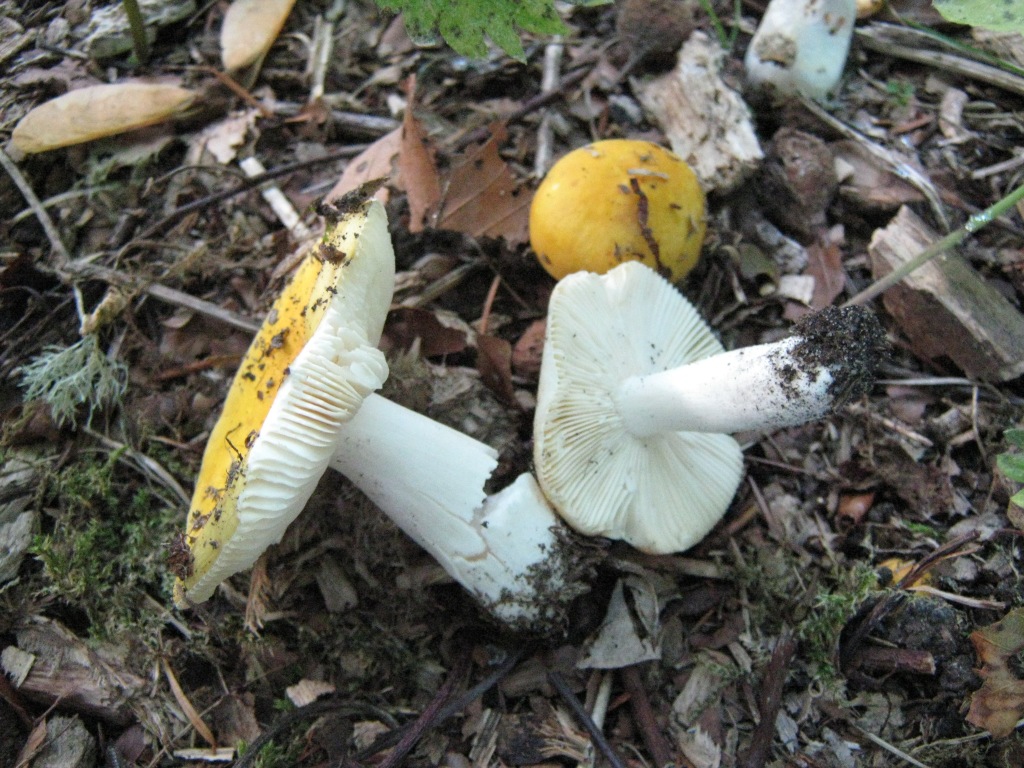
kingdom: Fungi
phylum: Basidiomycota
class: Agaricomycetes
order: Russulales
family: Russulaceae
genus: Russula
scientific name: Russula ochroleuca
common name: okkergul skørhat
